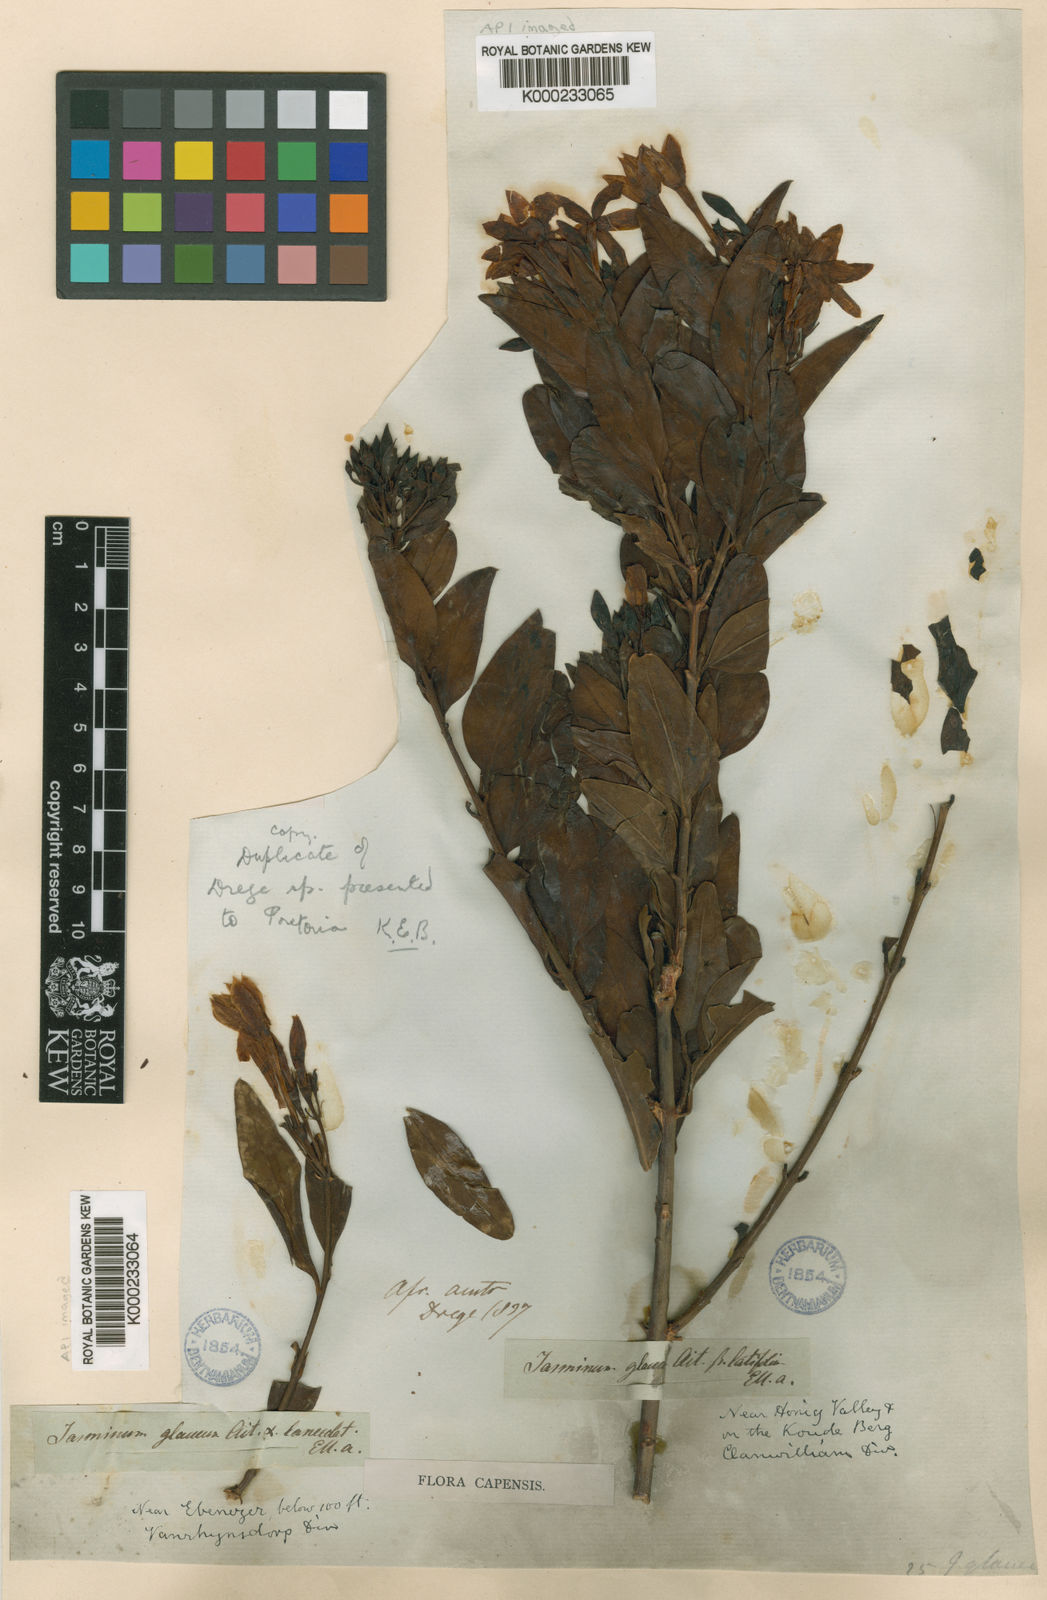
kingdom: Plantae
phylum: Tracheophyta
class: Magnoliopsida
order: Lamiales
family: Oleaceae
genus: Jasminum
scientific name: Jasminum glaucum
